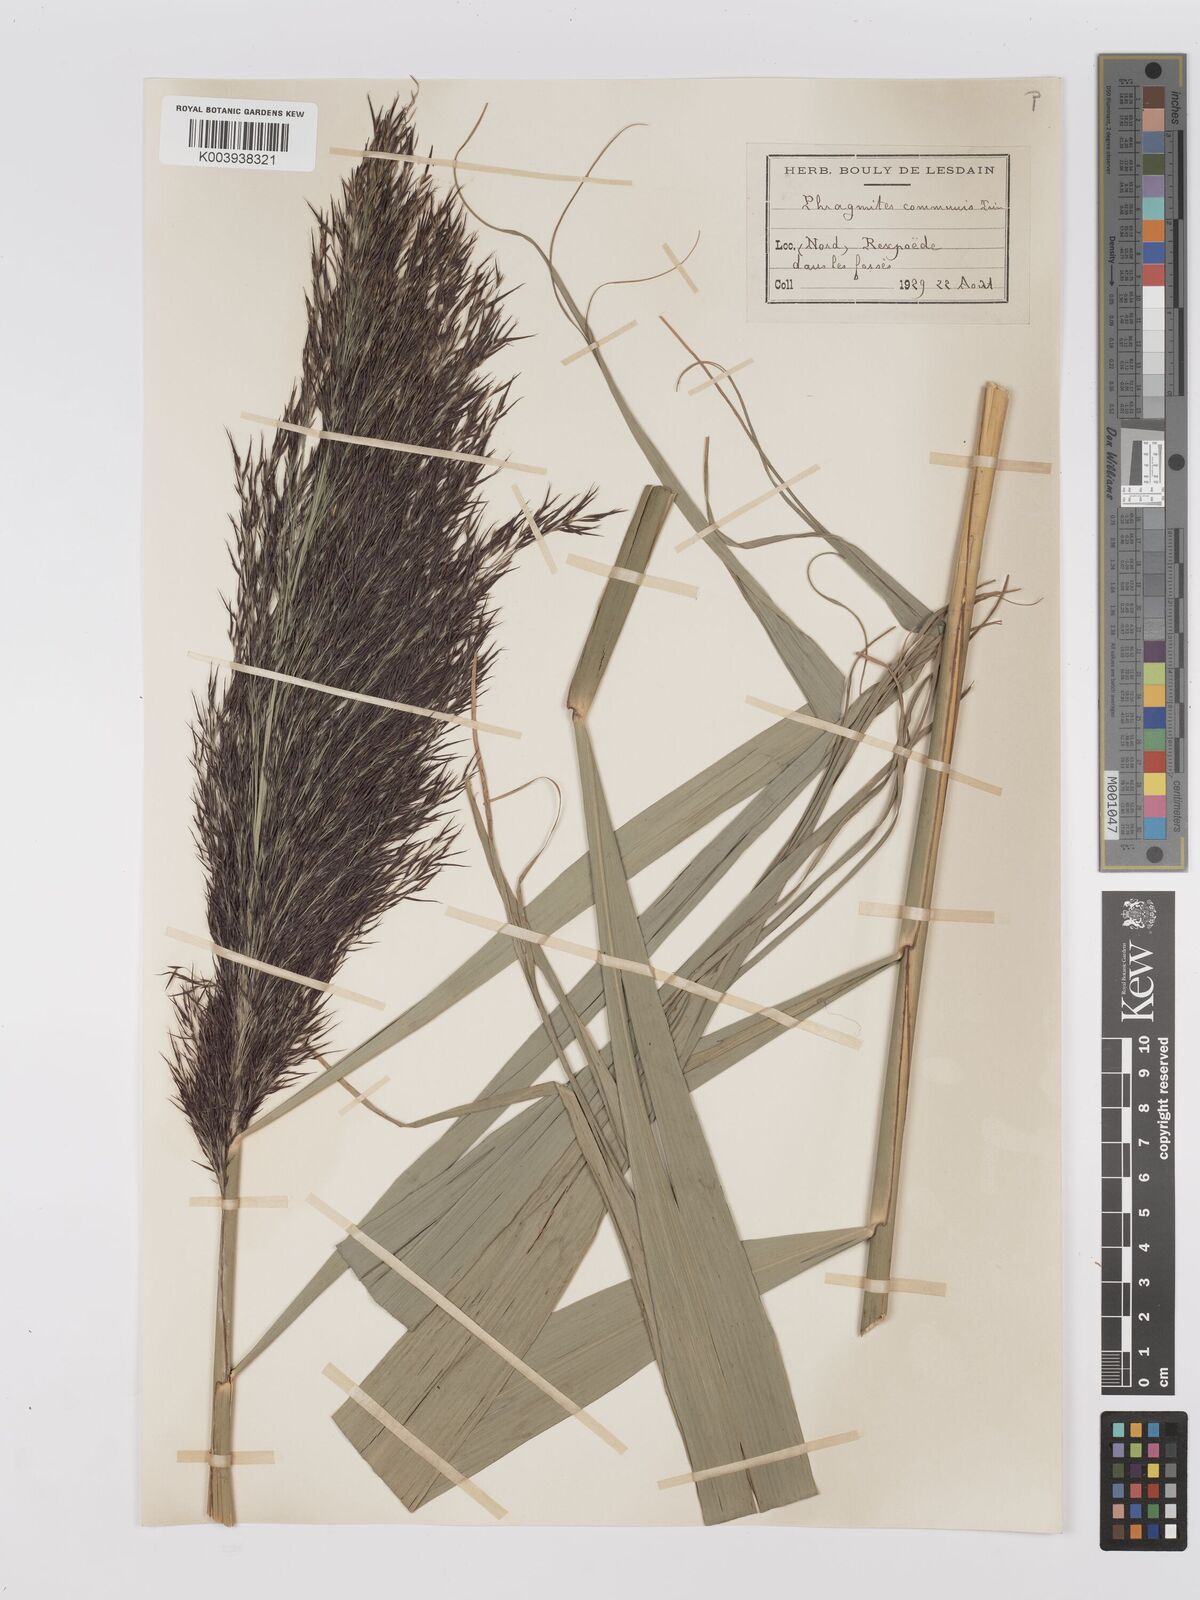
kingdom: Plantae
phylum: Tracheophyta
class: Liliopsida
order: Poales
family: Poaceae
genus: Phragmites
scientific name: Phragmites australis
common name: Common reed
